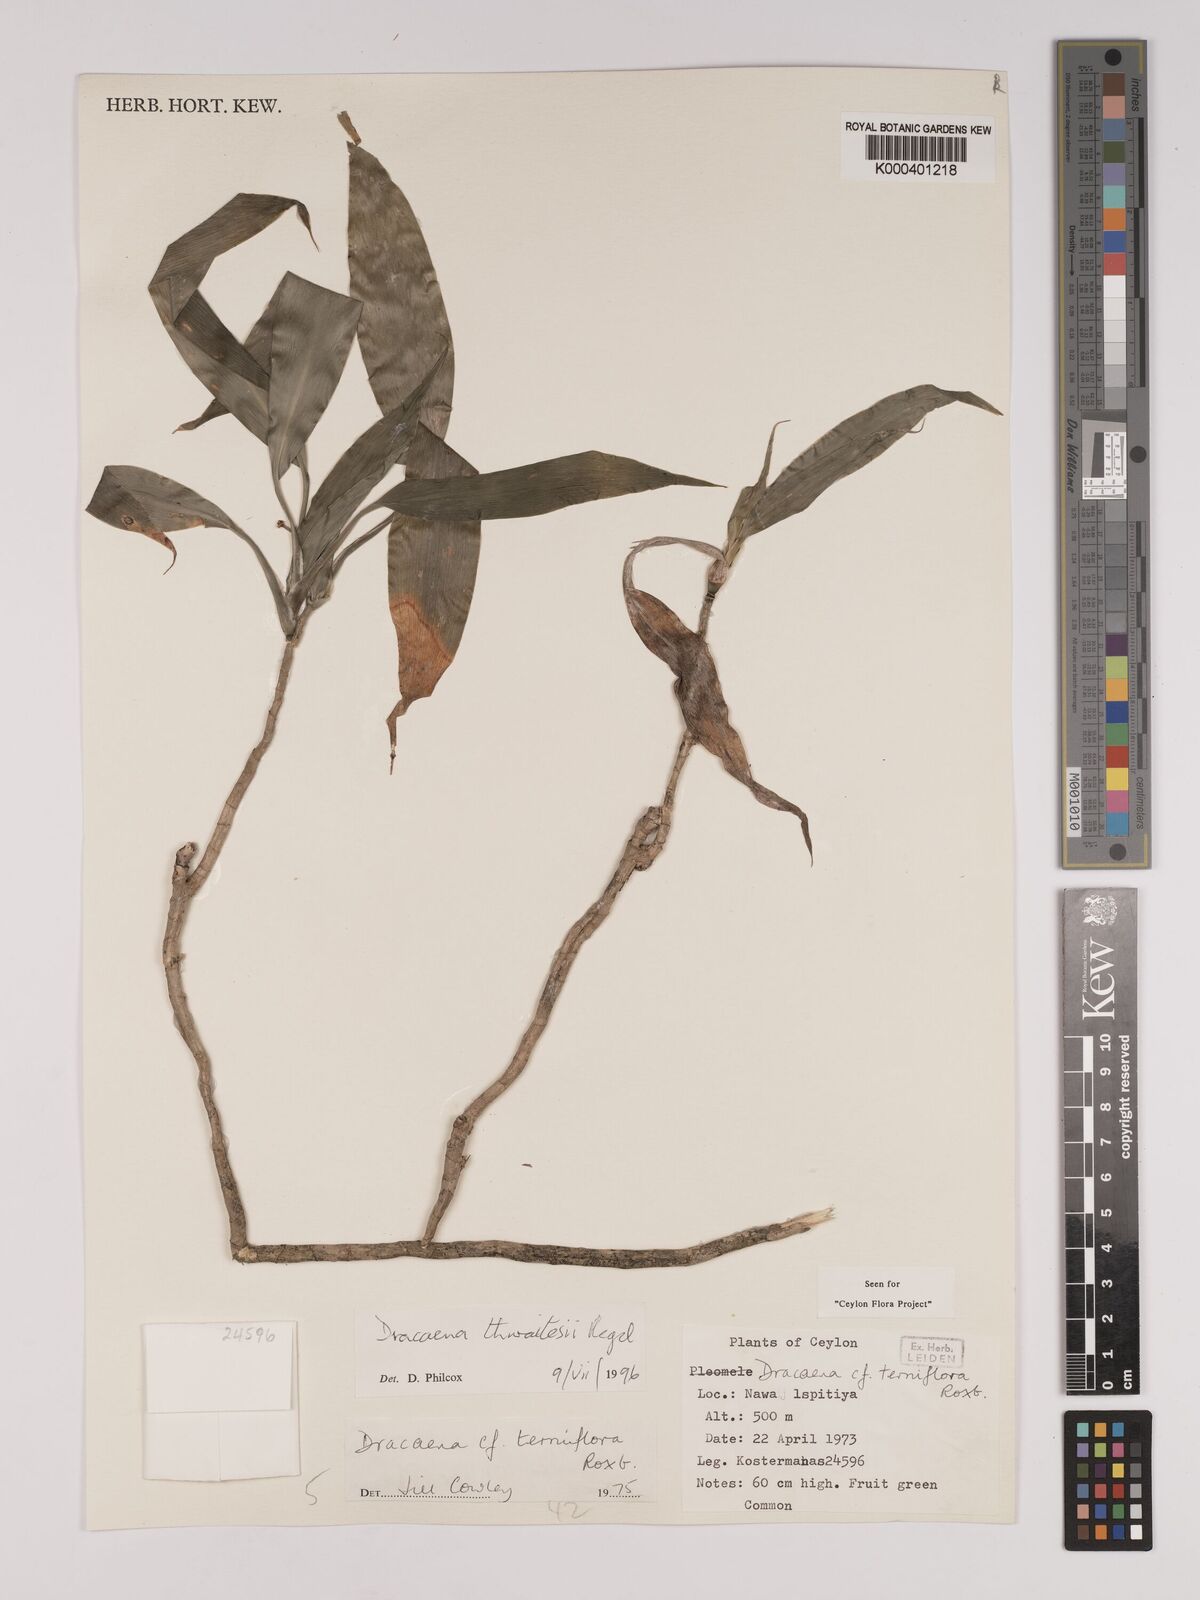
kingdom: Plantae
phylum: Tracheophyta
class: Liliopsida
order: Asparagales
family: Asparagaceae
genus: Dracaena
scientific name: Dracaena thwaitesii
